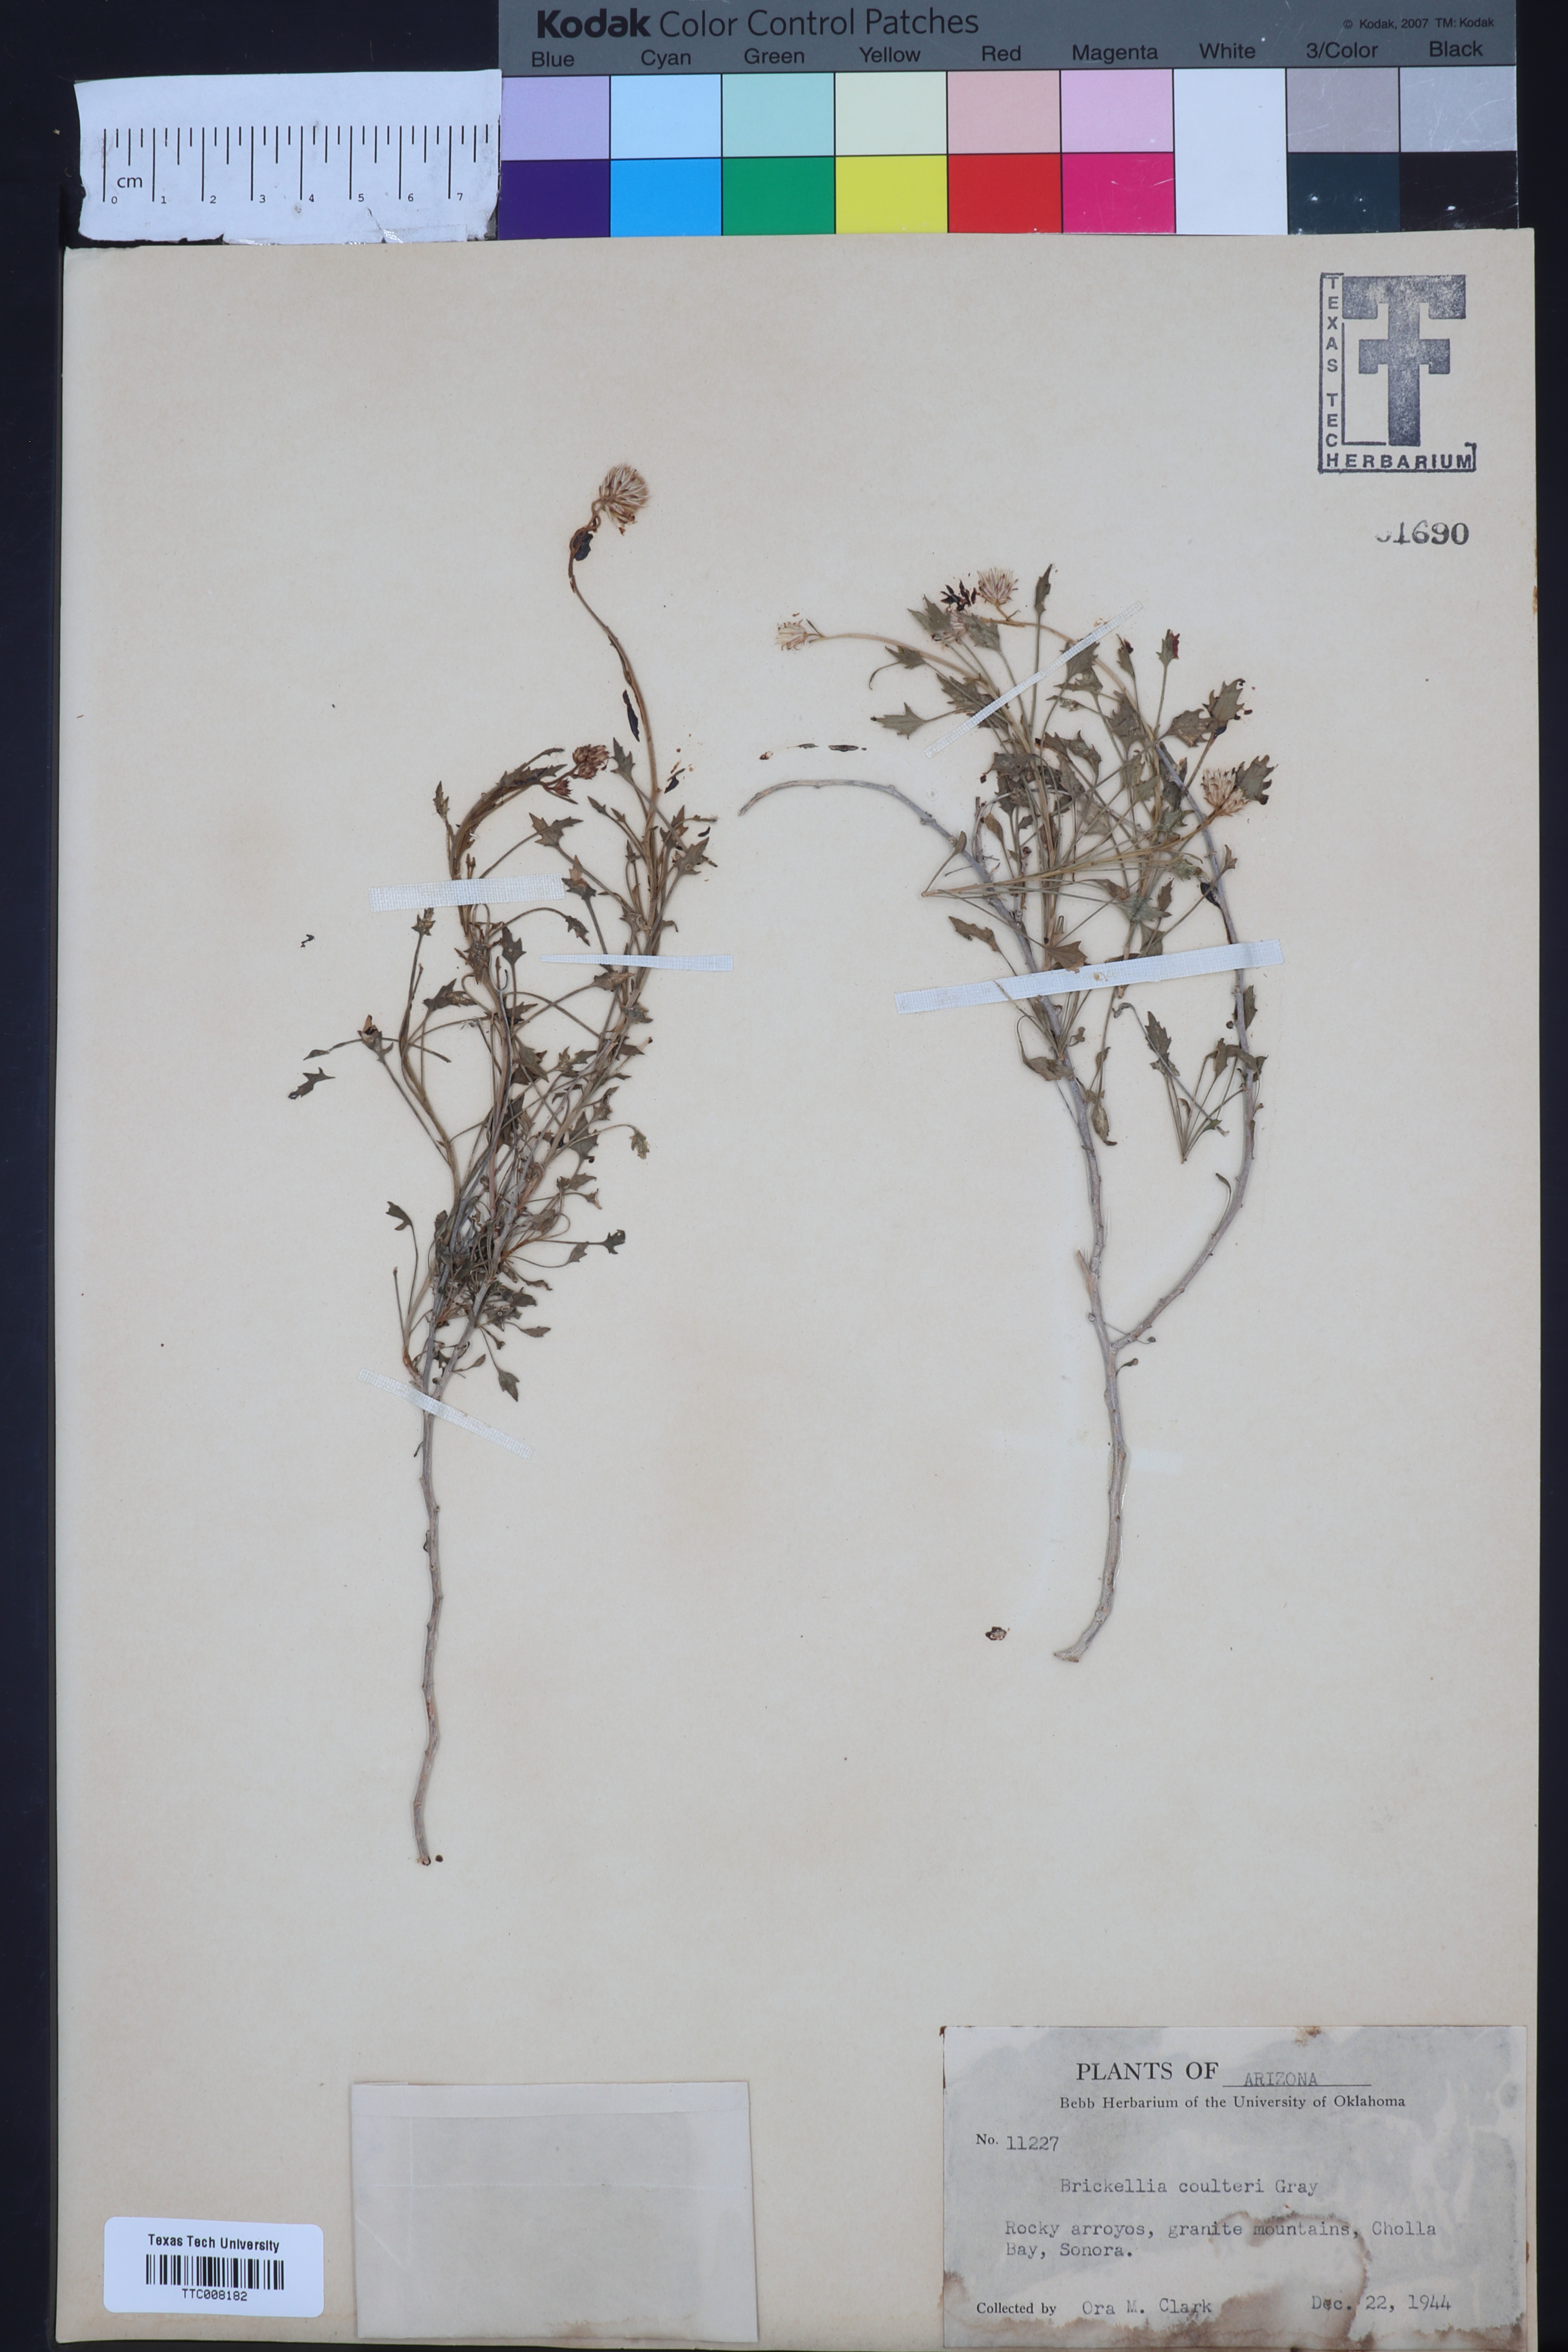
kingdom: Plantae
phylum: Tracheophyta
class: Magnoliopsida
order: Asterales
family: Asteraceae
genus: Brickellia
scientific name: Brickellia coulteri
